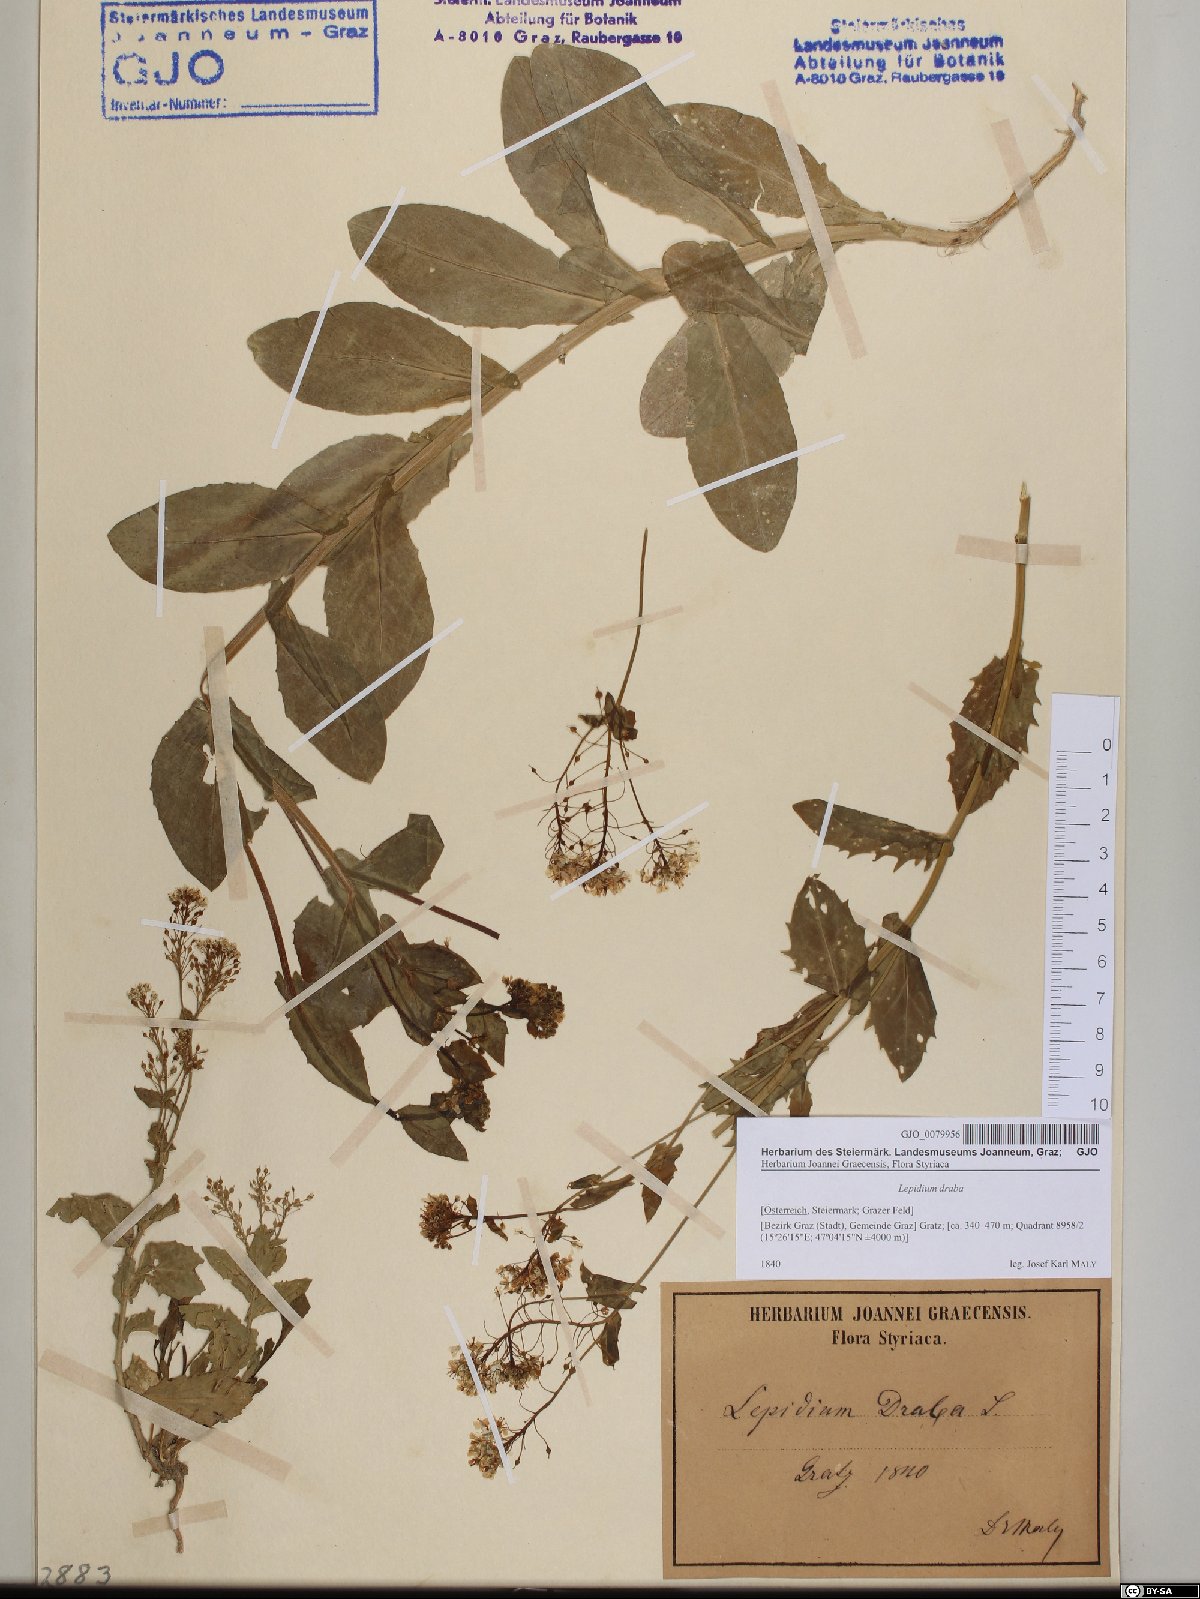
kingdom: Plantae
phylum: Tracheophyta
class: Magnoliopsida
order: Brassicales
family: Brassicaceae
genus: Lepidium
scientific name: Lepidium draba
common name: Hoary cress
